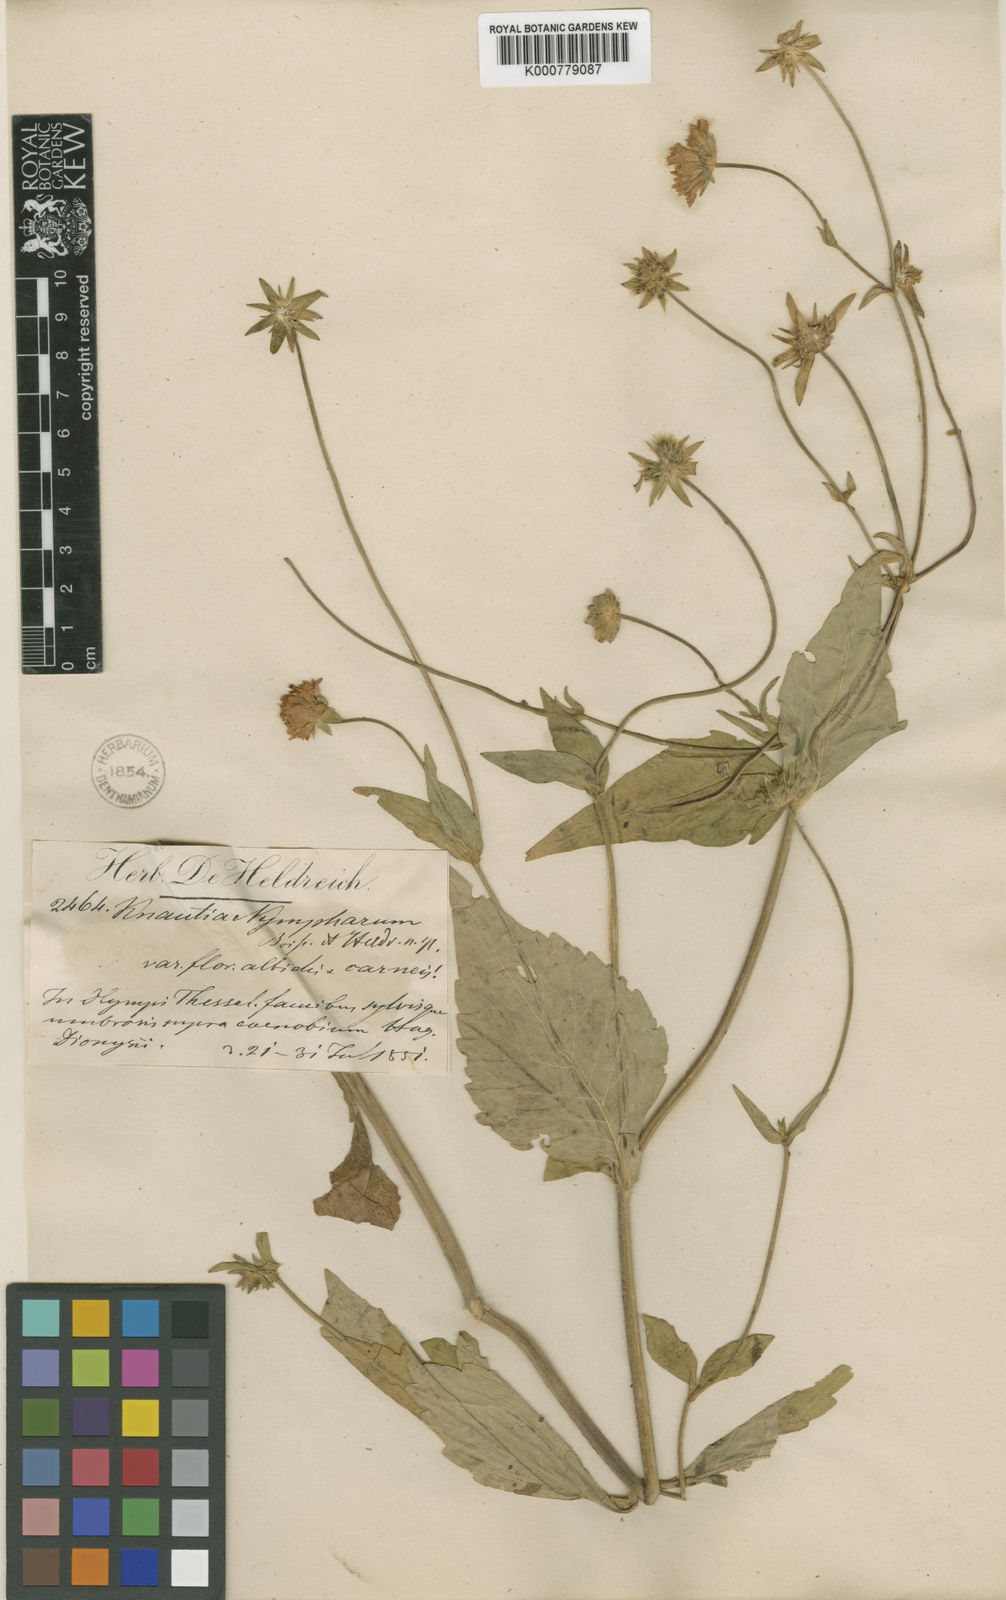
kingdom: Plantae
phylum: Tracheophyta
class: Magnoliopsida
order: Dipsacales
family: Caprifoliaceae
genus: Knautia
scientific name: Knautia drymeia
